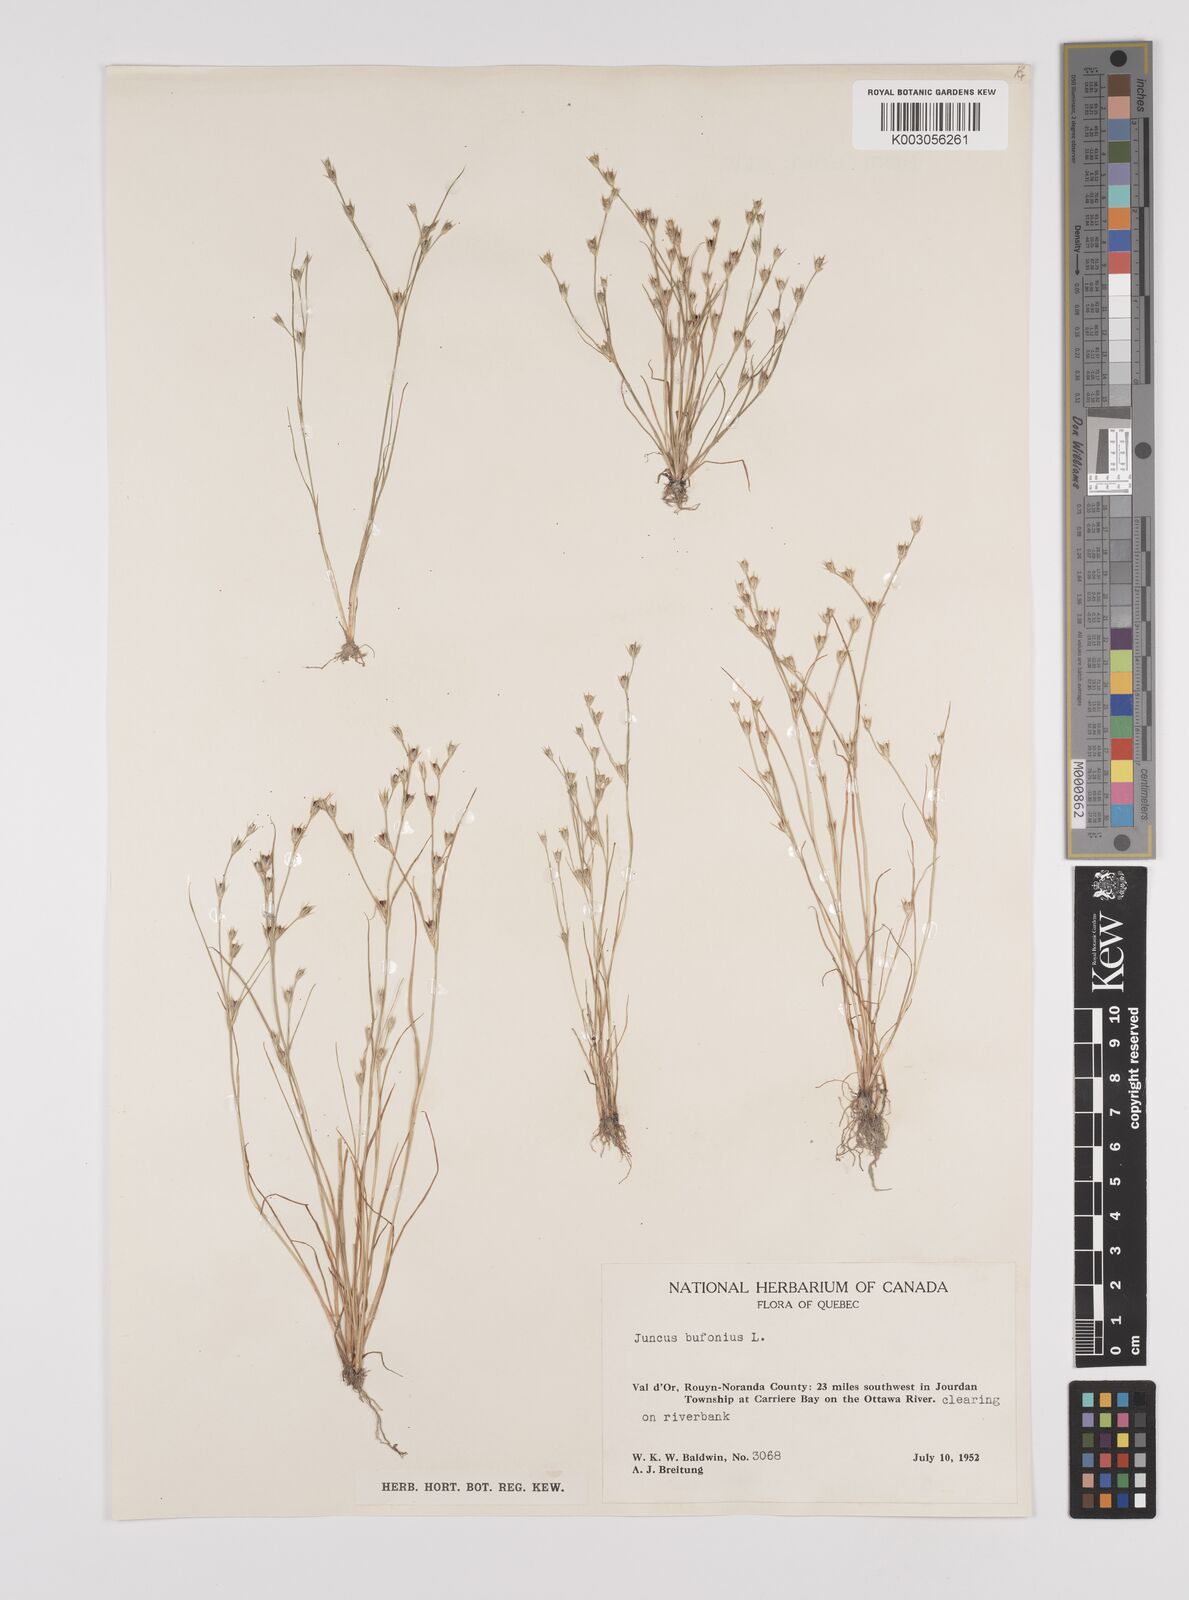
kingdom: Plantae
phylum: Tracheophyta
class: Liliopsida
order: Poales
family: Juncaceae
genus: Juncus
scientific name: Juncus ranarius
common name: Frog rush
